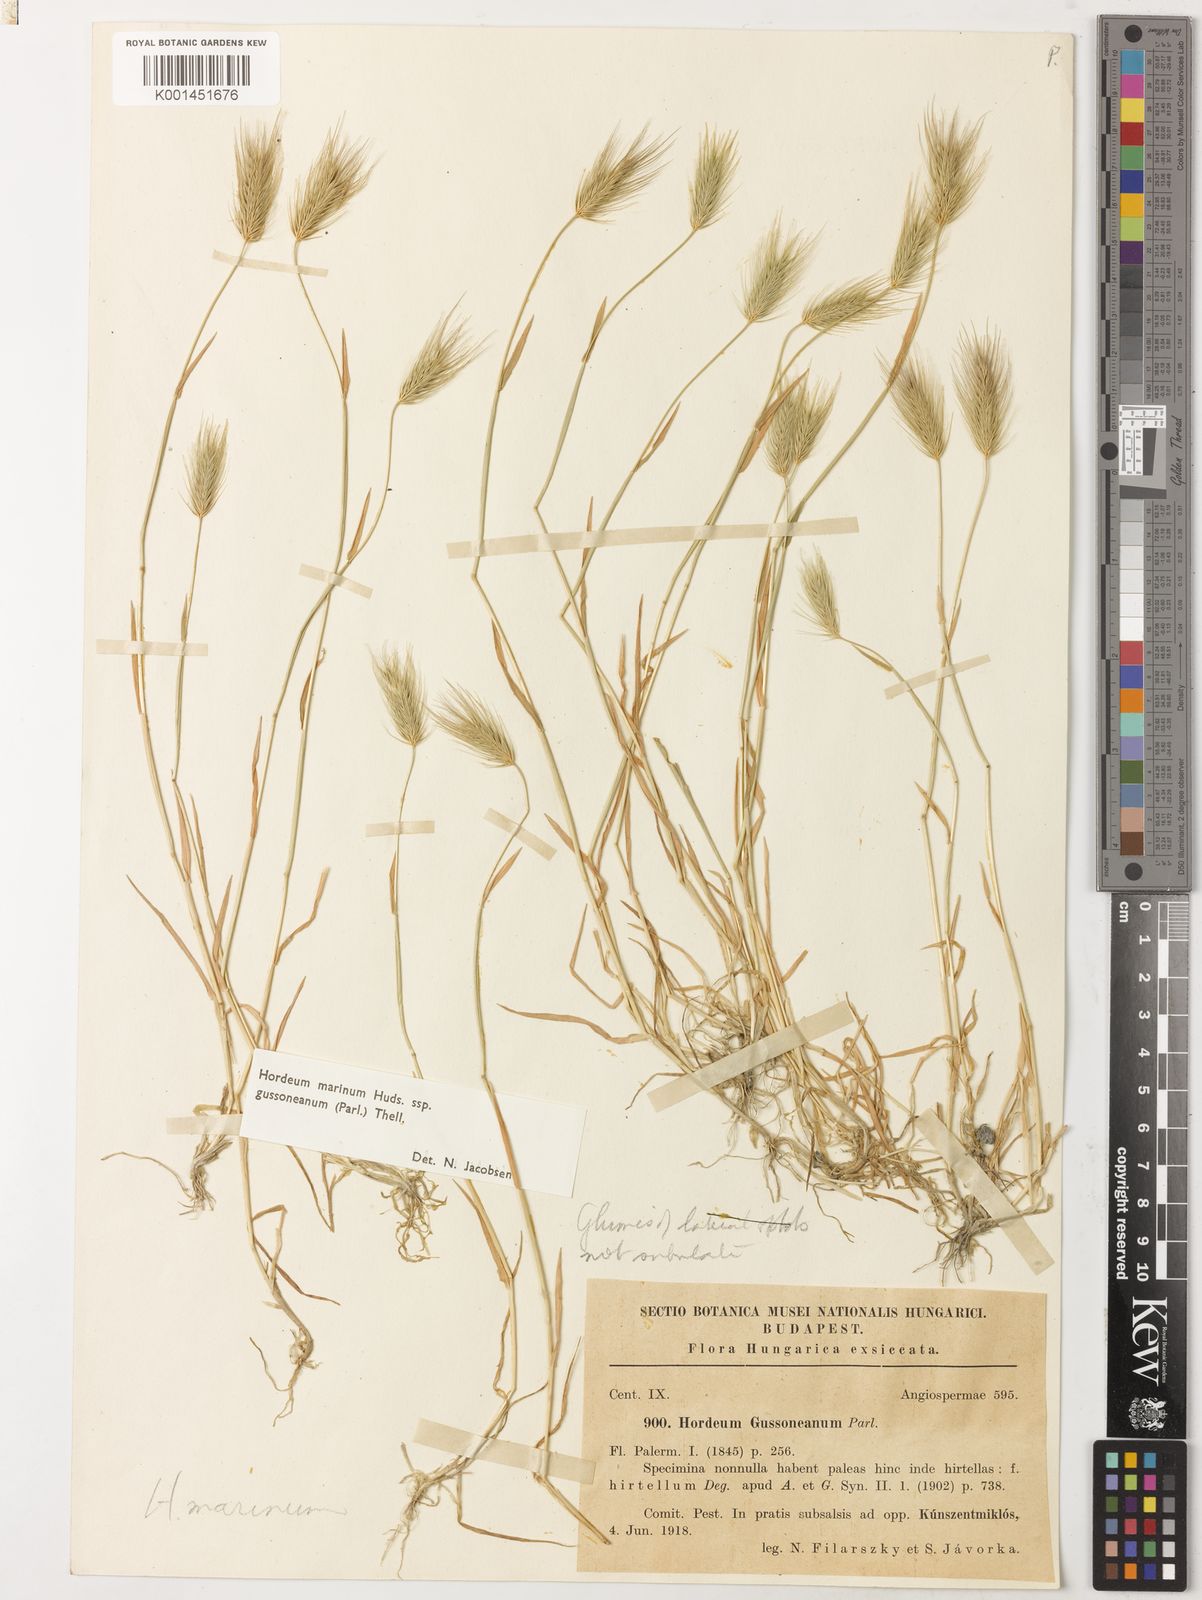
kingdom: Plantae
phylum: Tracheophyta
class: Liliopsida
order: Poales
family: Poaceae
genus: Hordeum
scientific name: Hordeum marinum
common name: Sea barley
